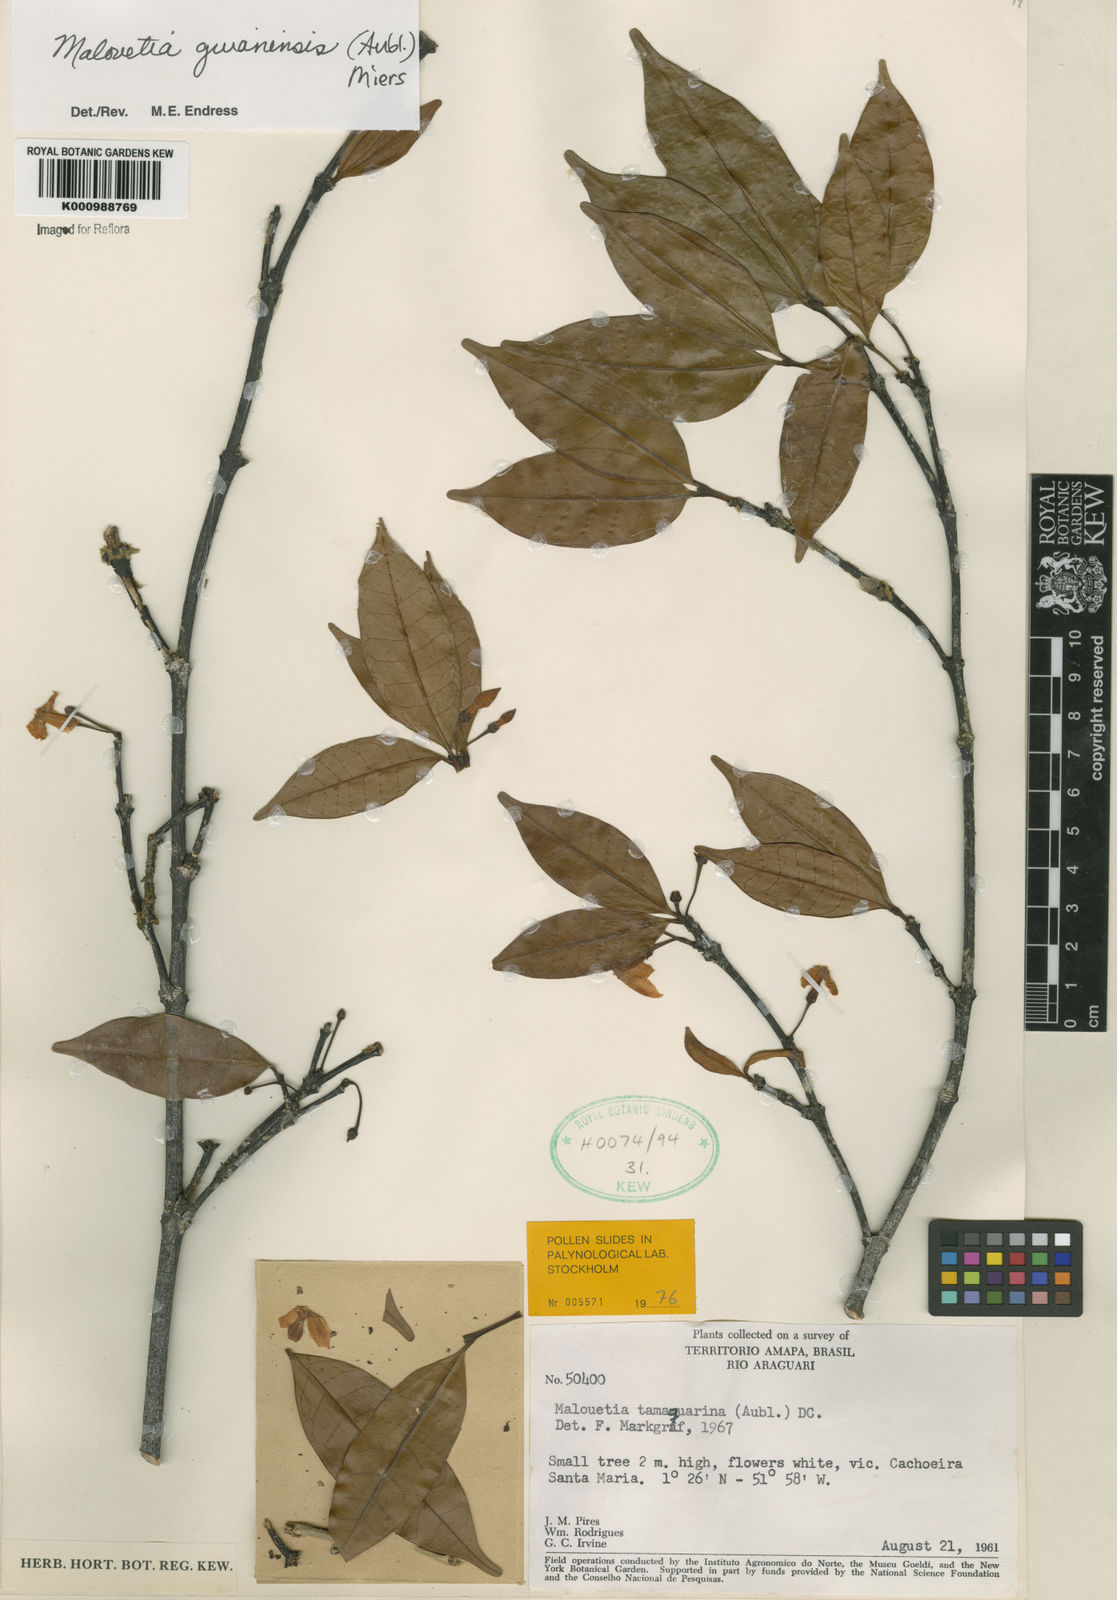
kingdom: Plantae
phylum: Tracheophyta
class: Magnoliopsida
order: Gentianales
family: Apocynaceae
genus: Malouetia
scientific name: Malouetia tamaquarina
